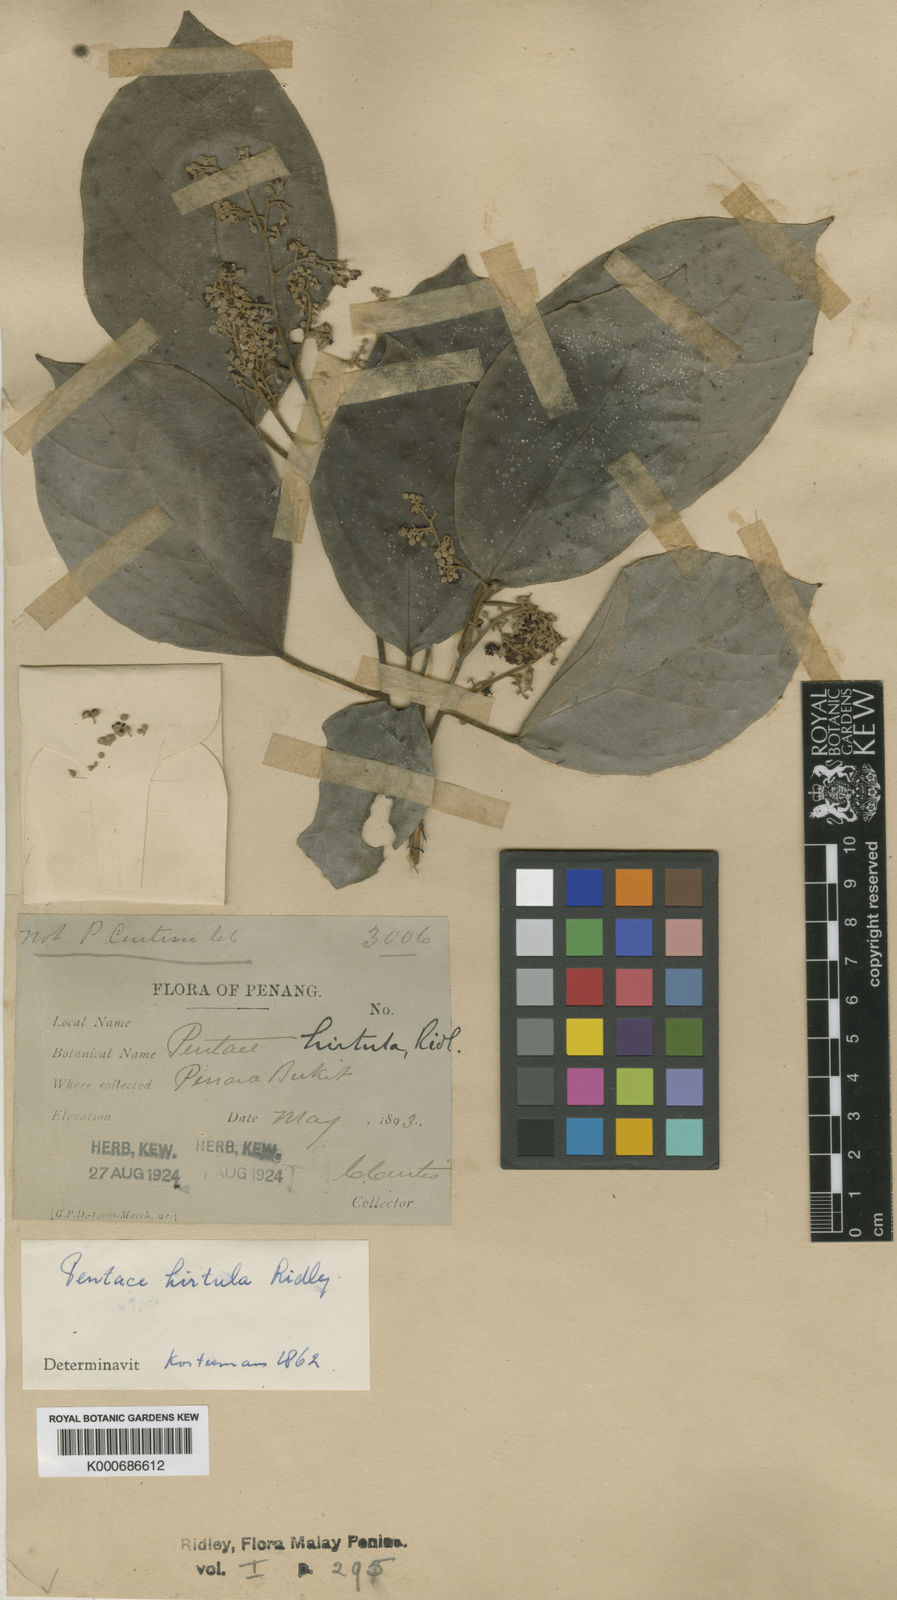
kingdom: Plantae
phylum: Tracheophyta
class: Magnoliopsida
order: Malvales
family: Malvaceae
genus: Pentace
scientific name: Pentace hirtula
